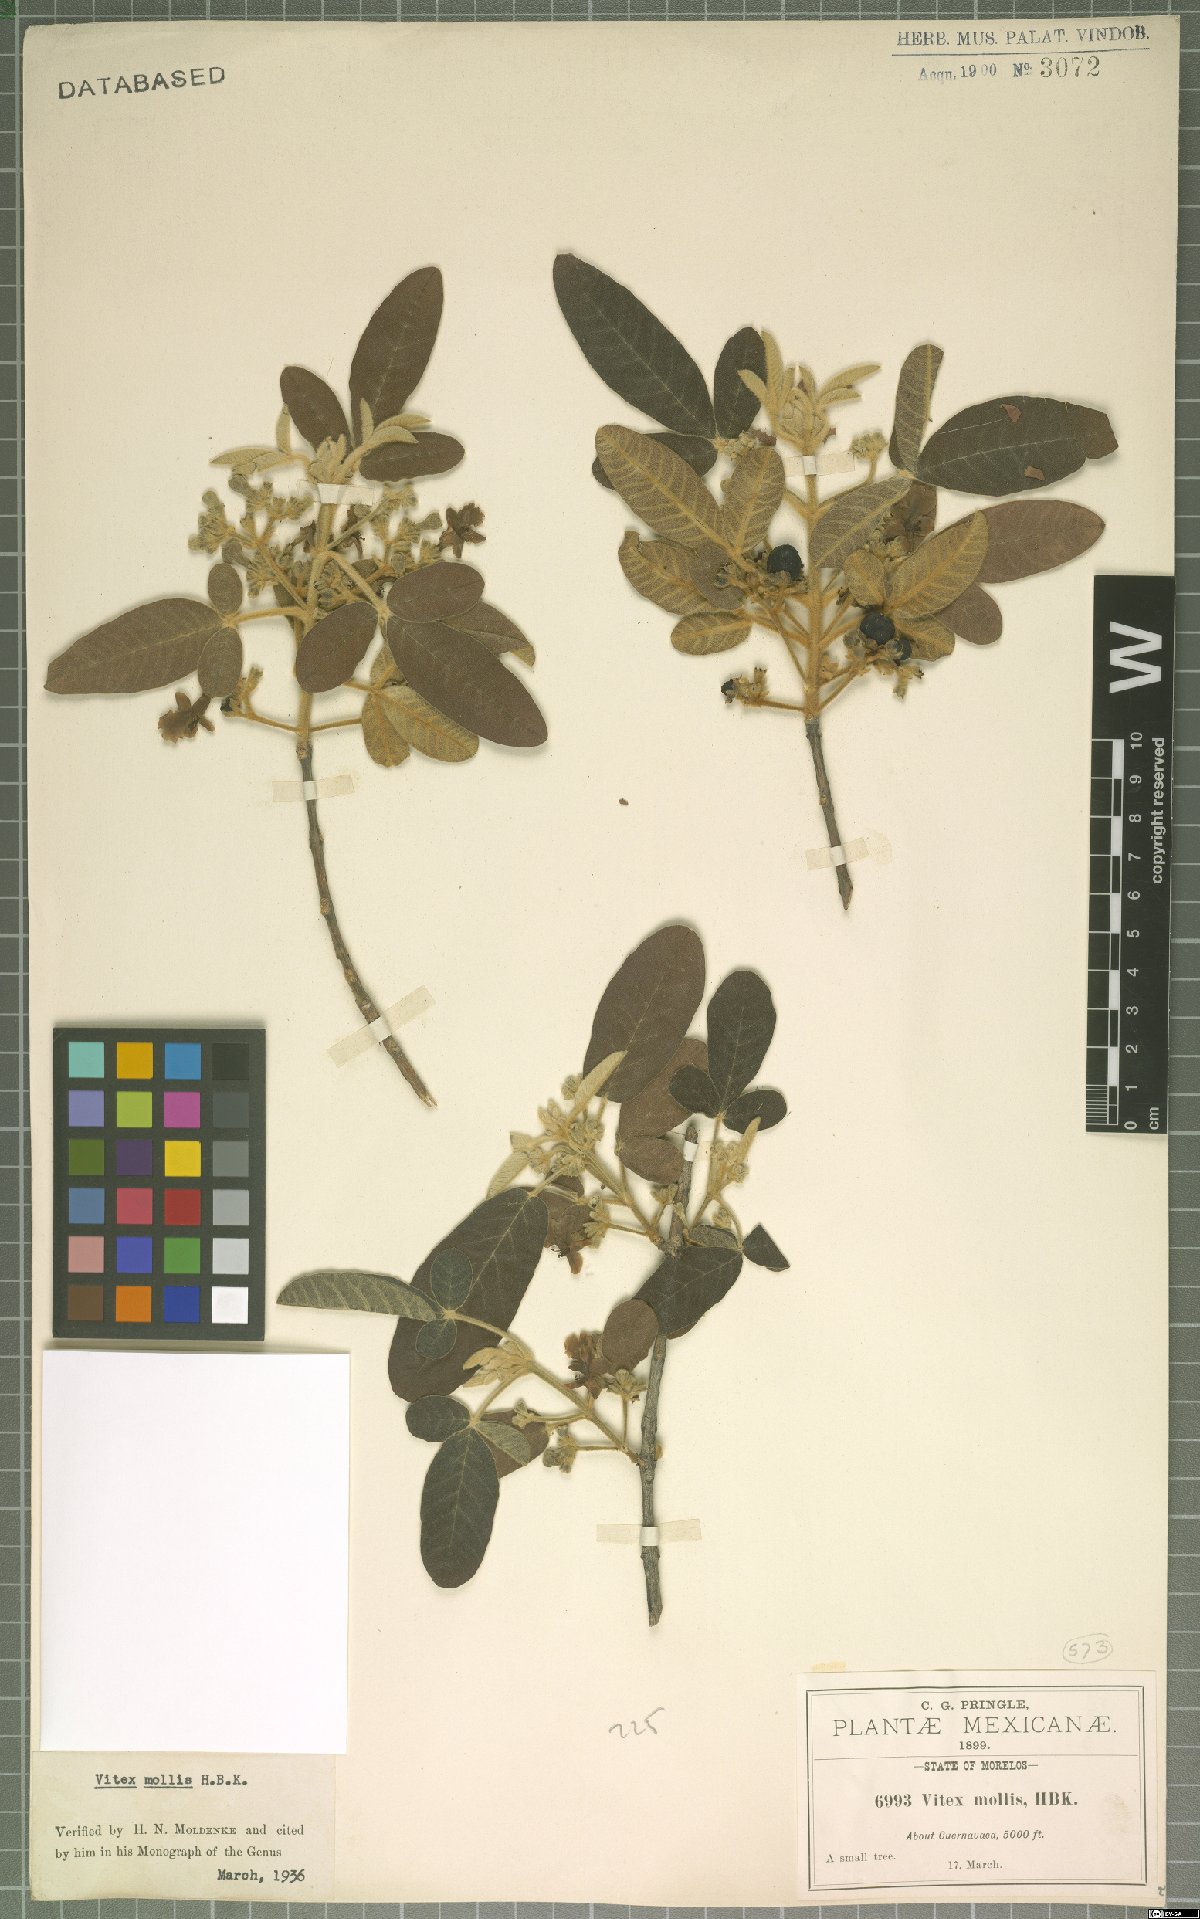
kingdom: Plantae
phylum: Tracheophyta
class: Magnoliopsida
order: Lamiales
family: Lamiaceae
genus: Vitex
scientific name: Vitex mollis
